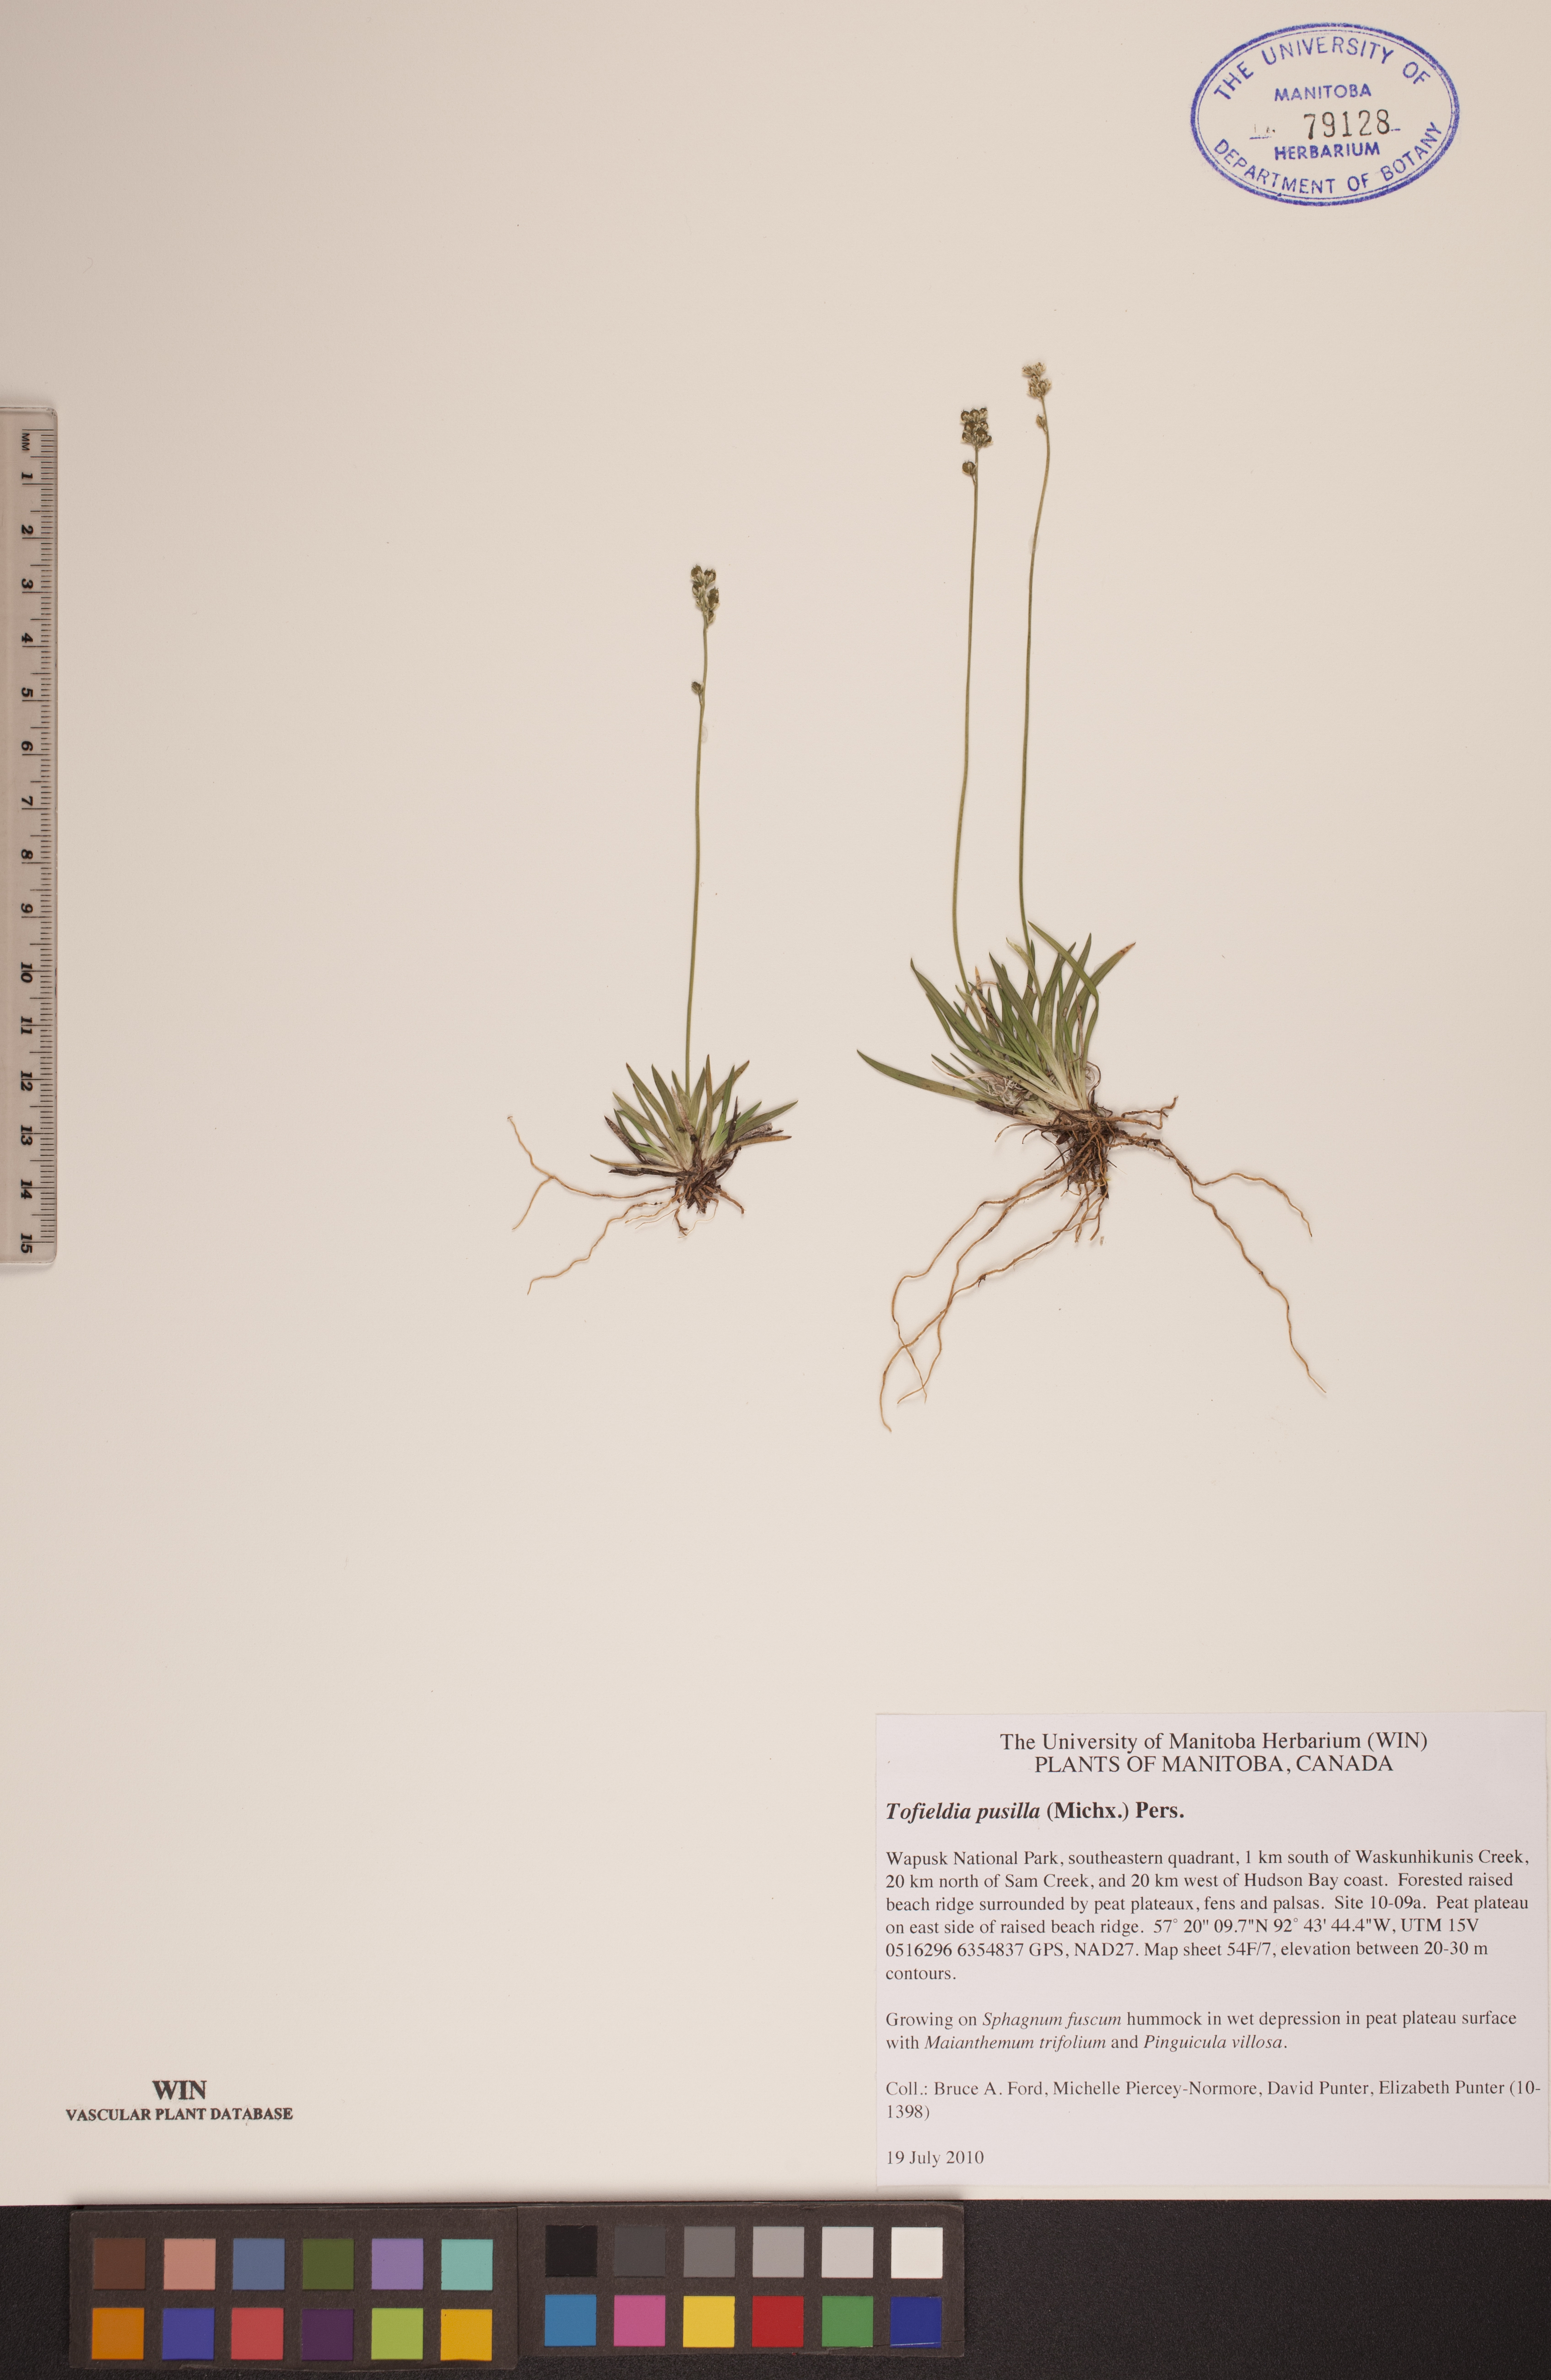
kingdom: Plantae
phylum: Tracheophyta
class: Liliopsida
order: Alismatales
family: Tofieldiaceae
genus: Tofieldia
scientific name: Tofieldia pusilla
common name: Scottish false asphodel
